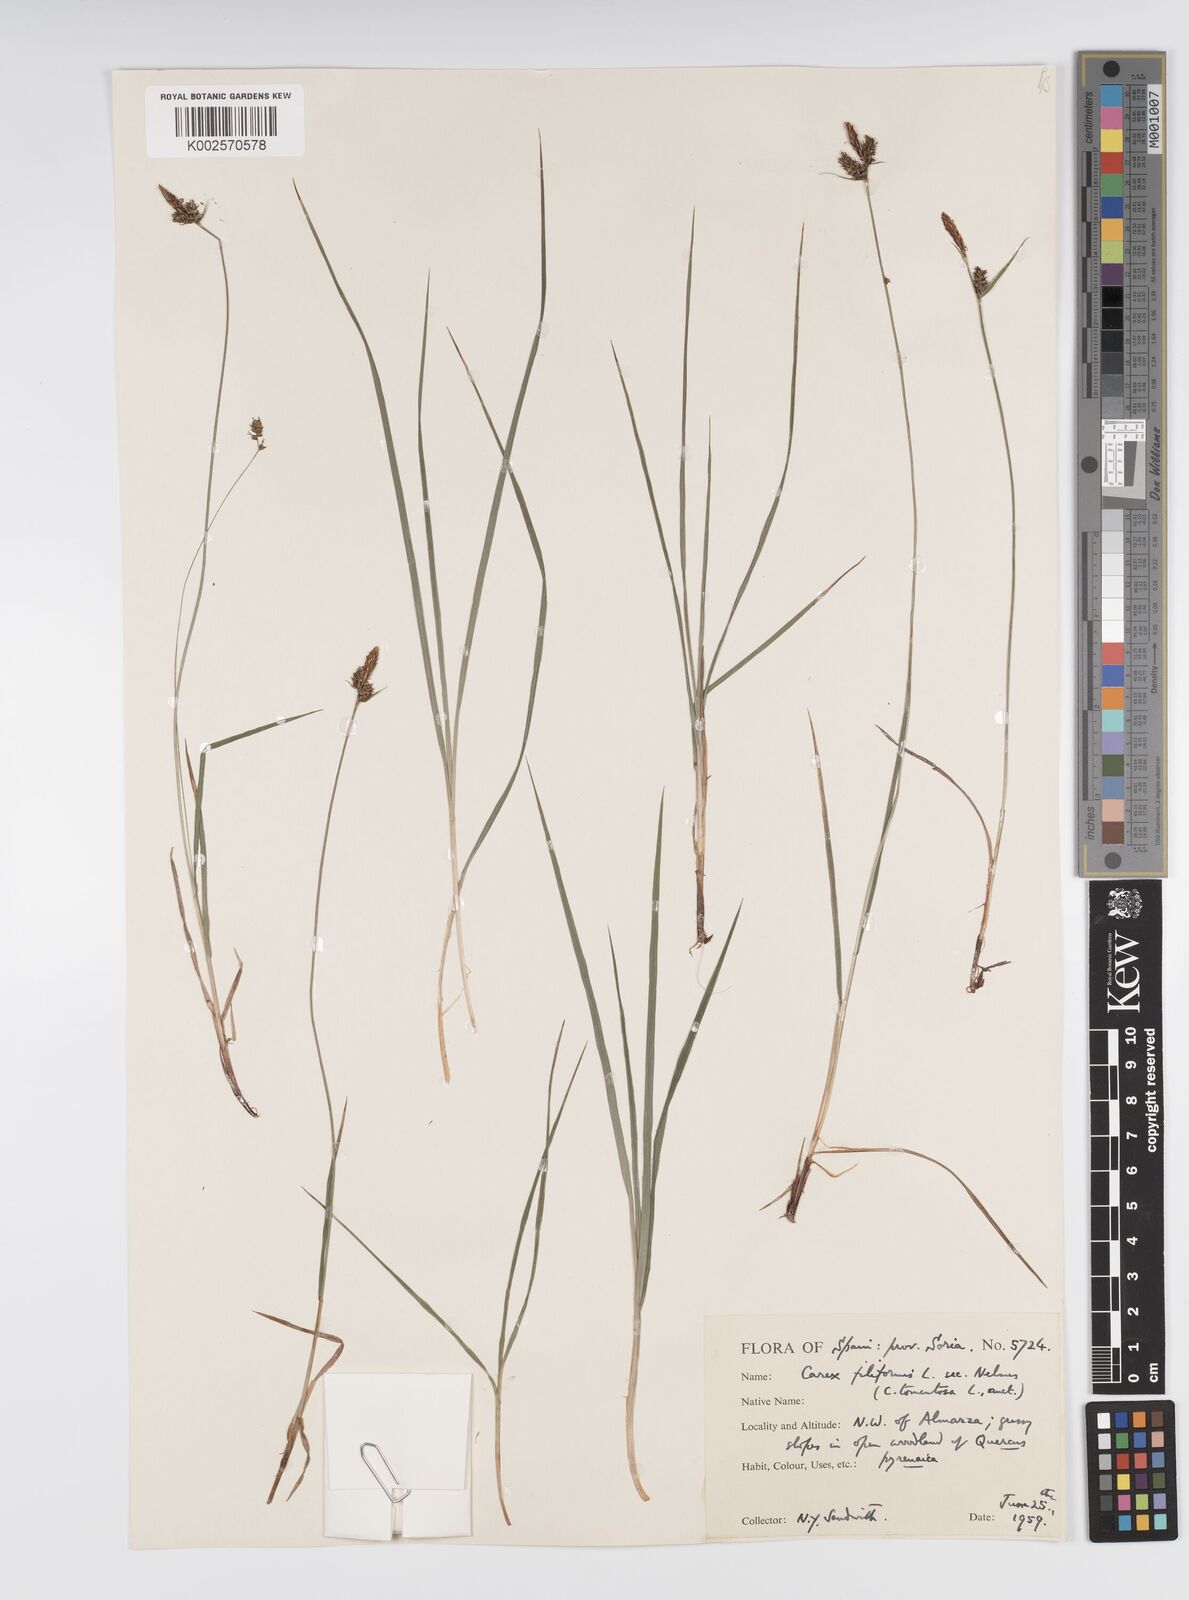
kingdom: Plantae
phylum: Tracheophyta
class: Liliopsida
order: Poales
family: Cyperaceae
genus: Carex
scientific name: Carex montana
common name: Soft-leaved sedge
